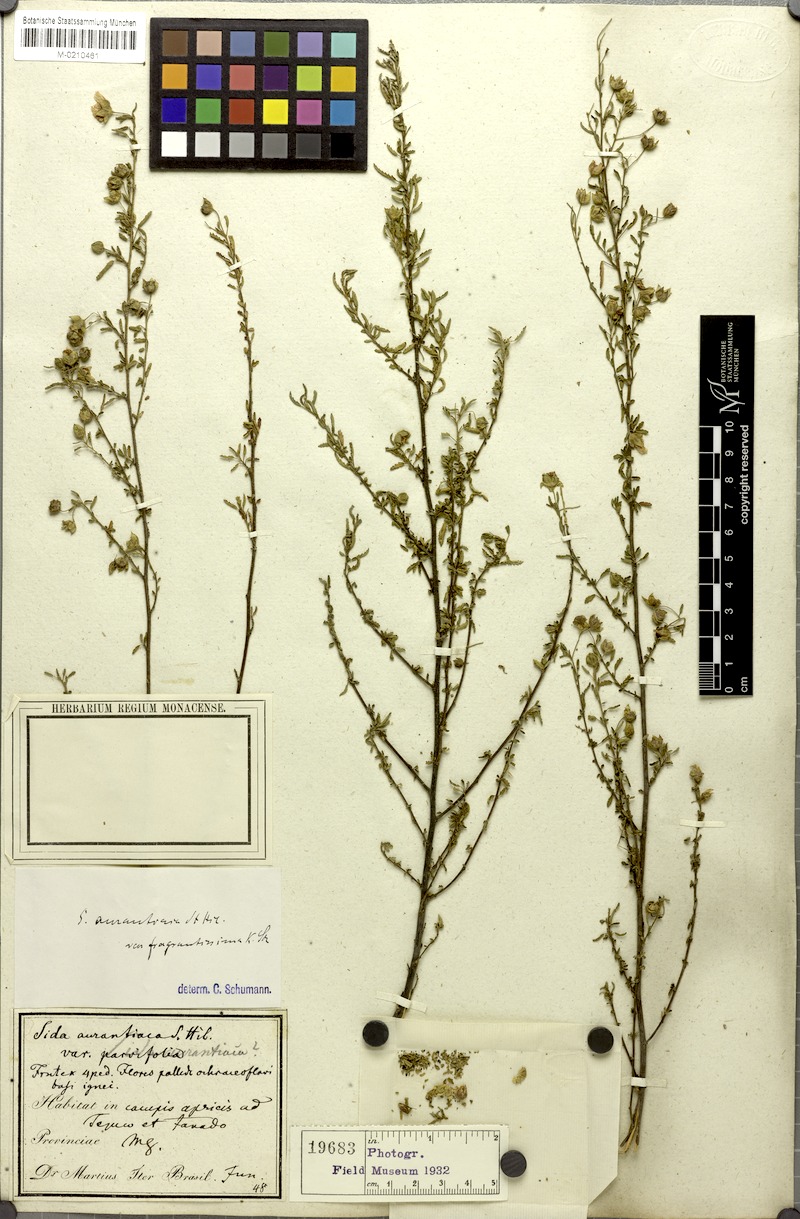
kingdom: Plantae
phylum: Tracheophyta
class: Magnoliopsida
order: Malvales
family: Malvaceae
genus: Sida
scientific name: Sida martiana
